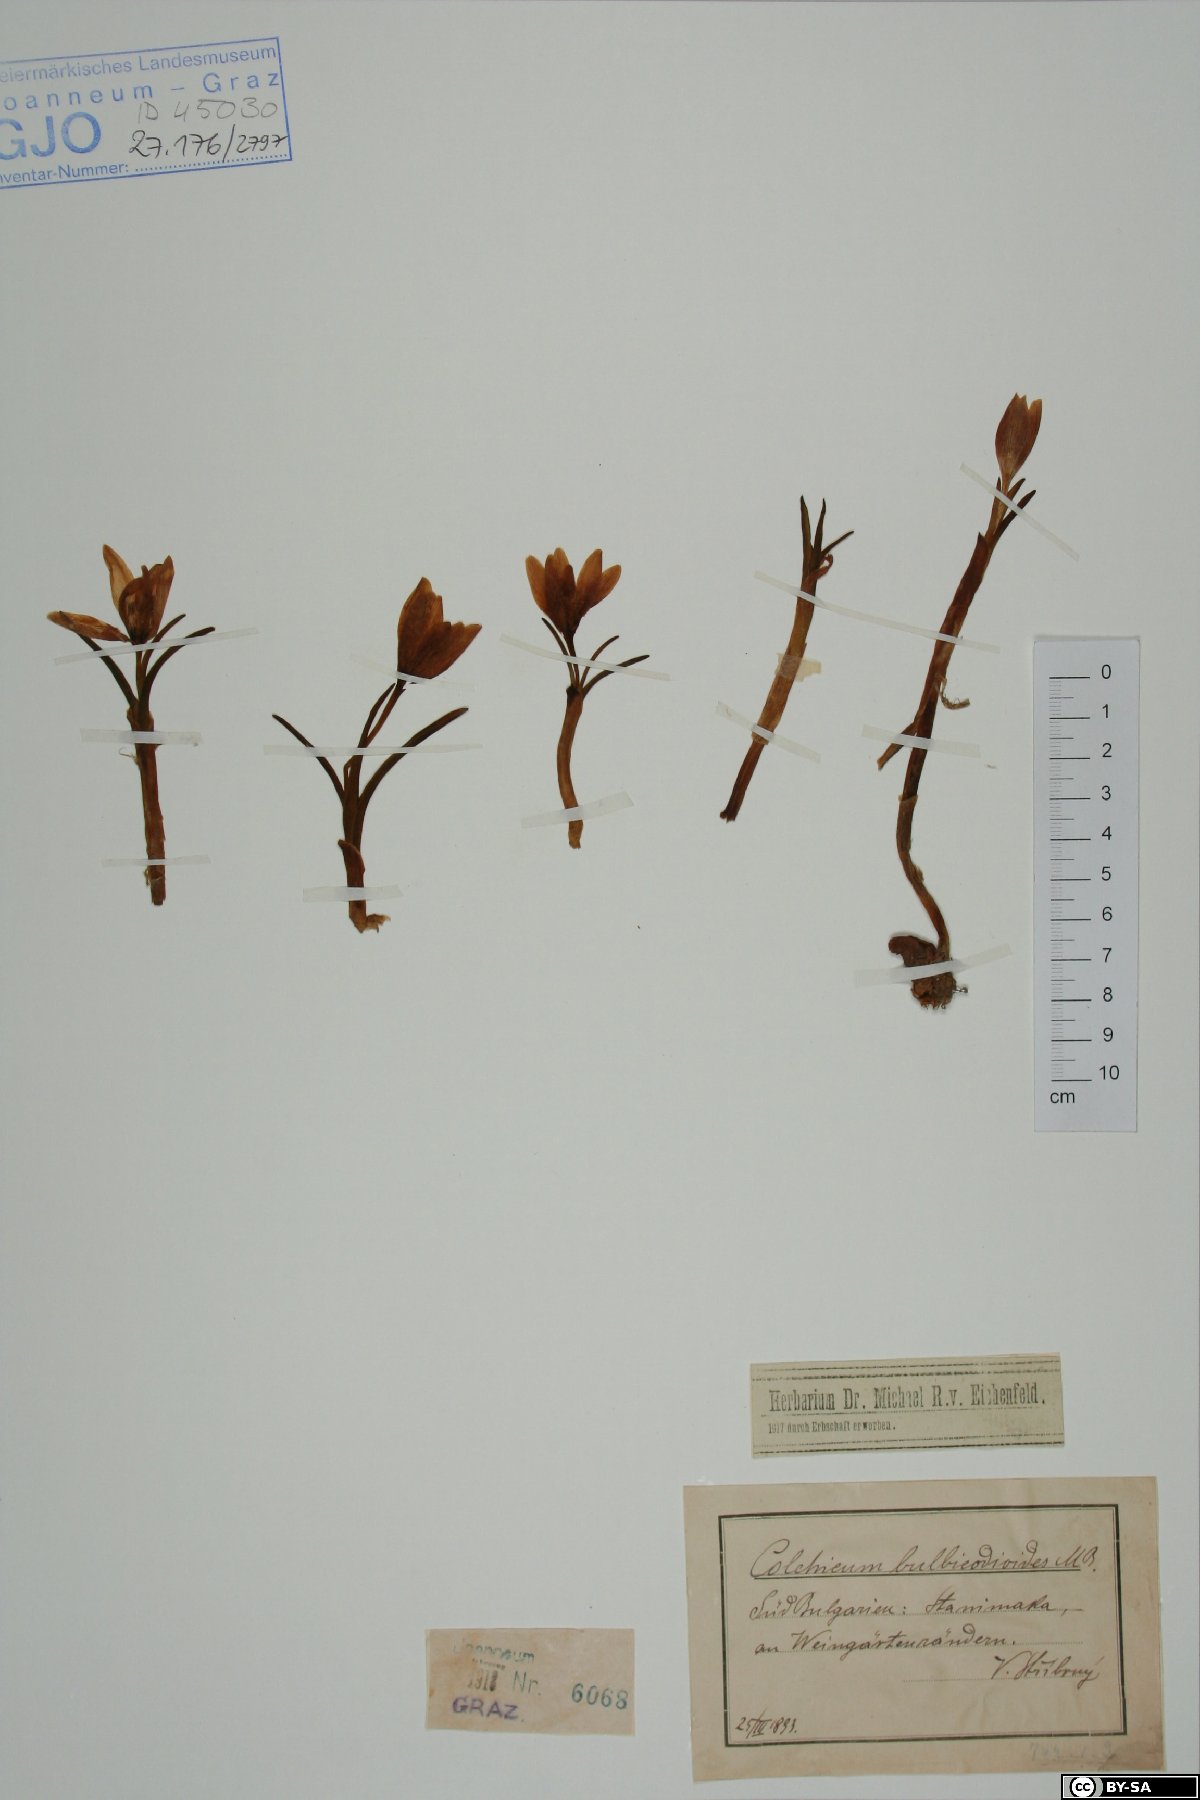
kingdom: Plantae
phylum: Tracheophyta
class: Liliopsida
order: Liliales
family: Colchicaceae
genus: Colchicum
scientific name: Colchicum triphyllum
